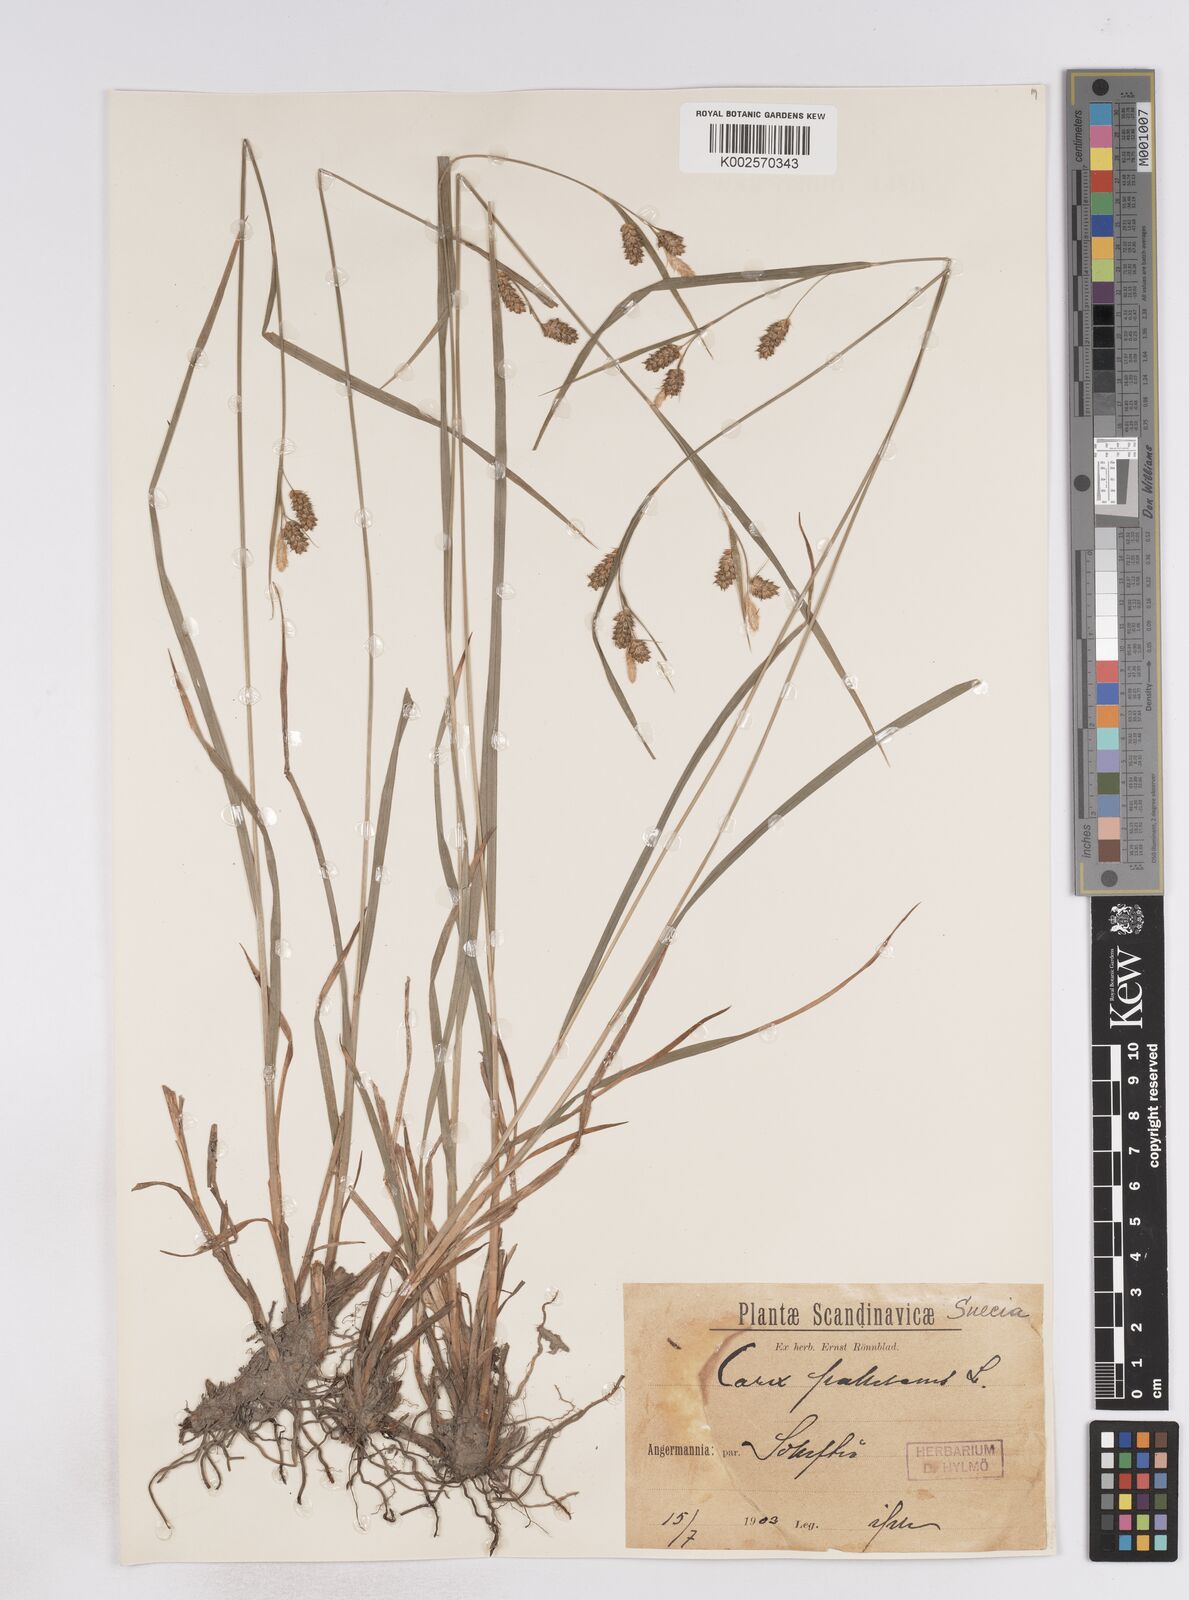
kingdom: Plantae
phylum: Tracheophyta
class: Liliopsida
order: Poales
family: Cyperaceae
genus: Carex
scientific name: Carex pallescens
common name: Pale sedge
